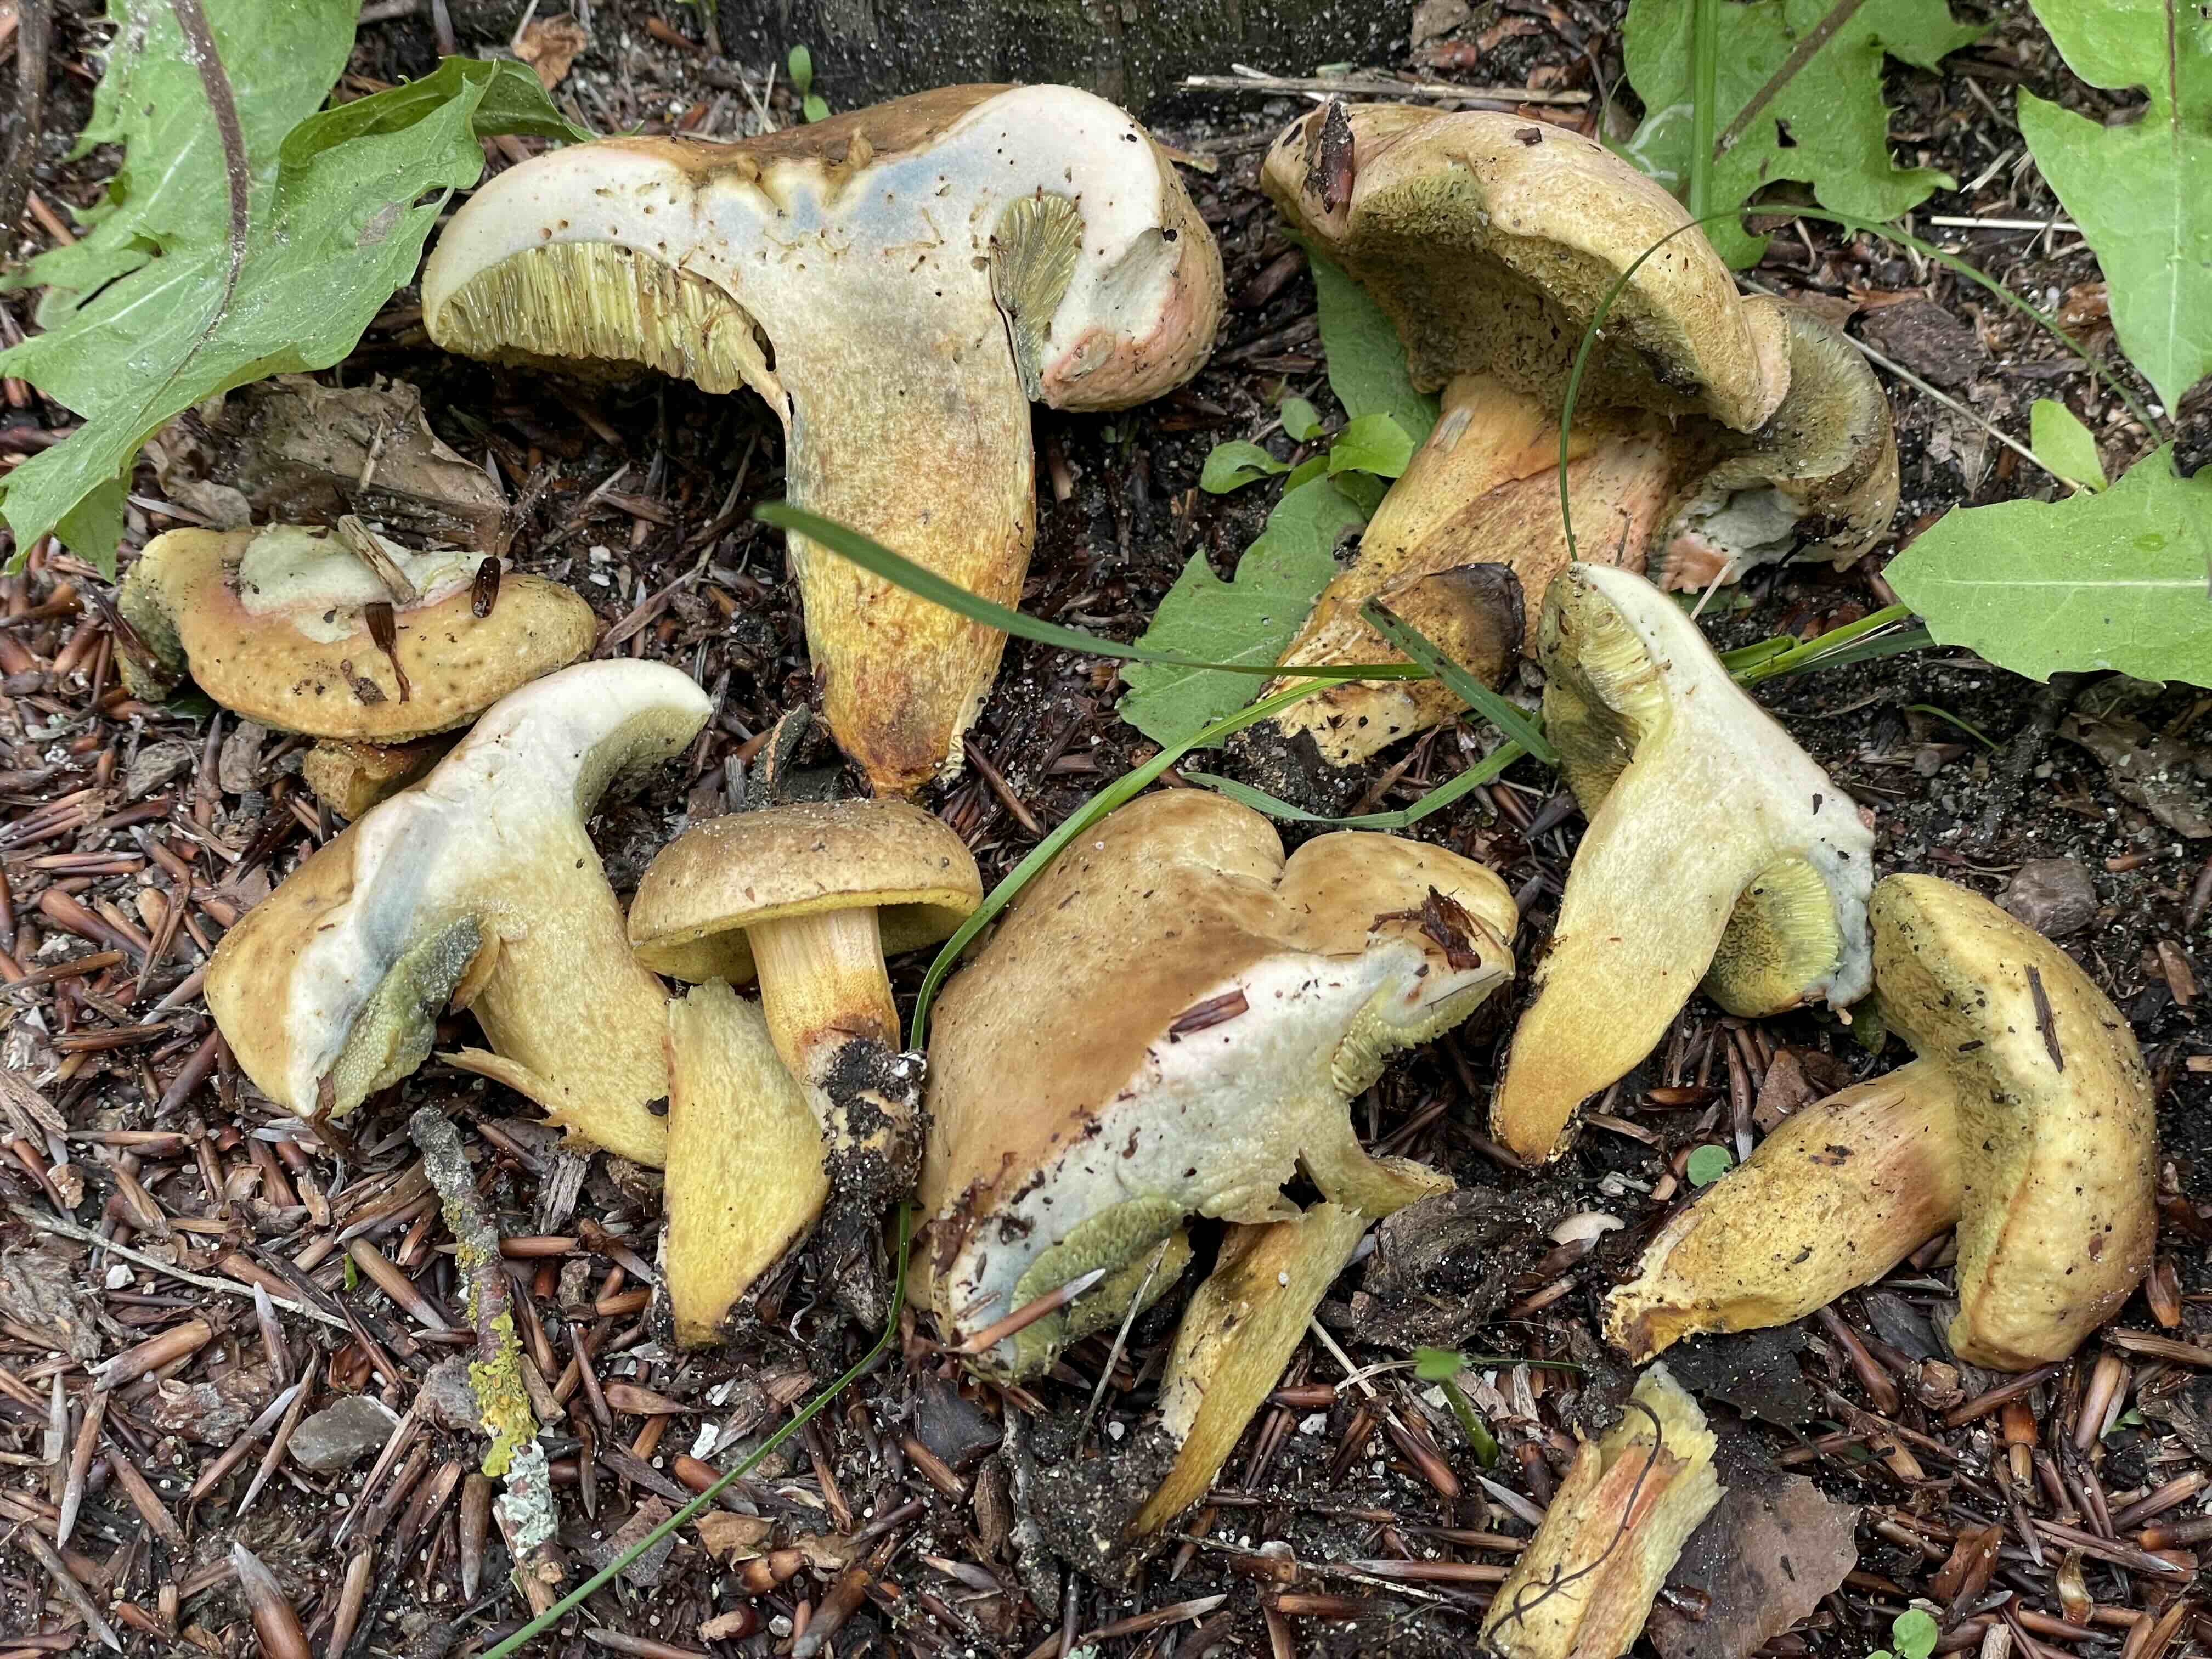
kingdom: Fungi
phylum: Basidiomycota
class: Agaricomycetes
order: Boletales
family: Boletaceae
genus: Hortiboletus
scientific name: Hortiboletus bubalinus
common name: aurora-rørhat
